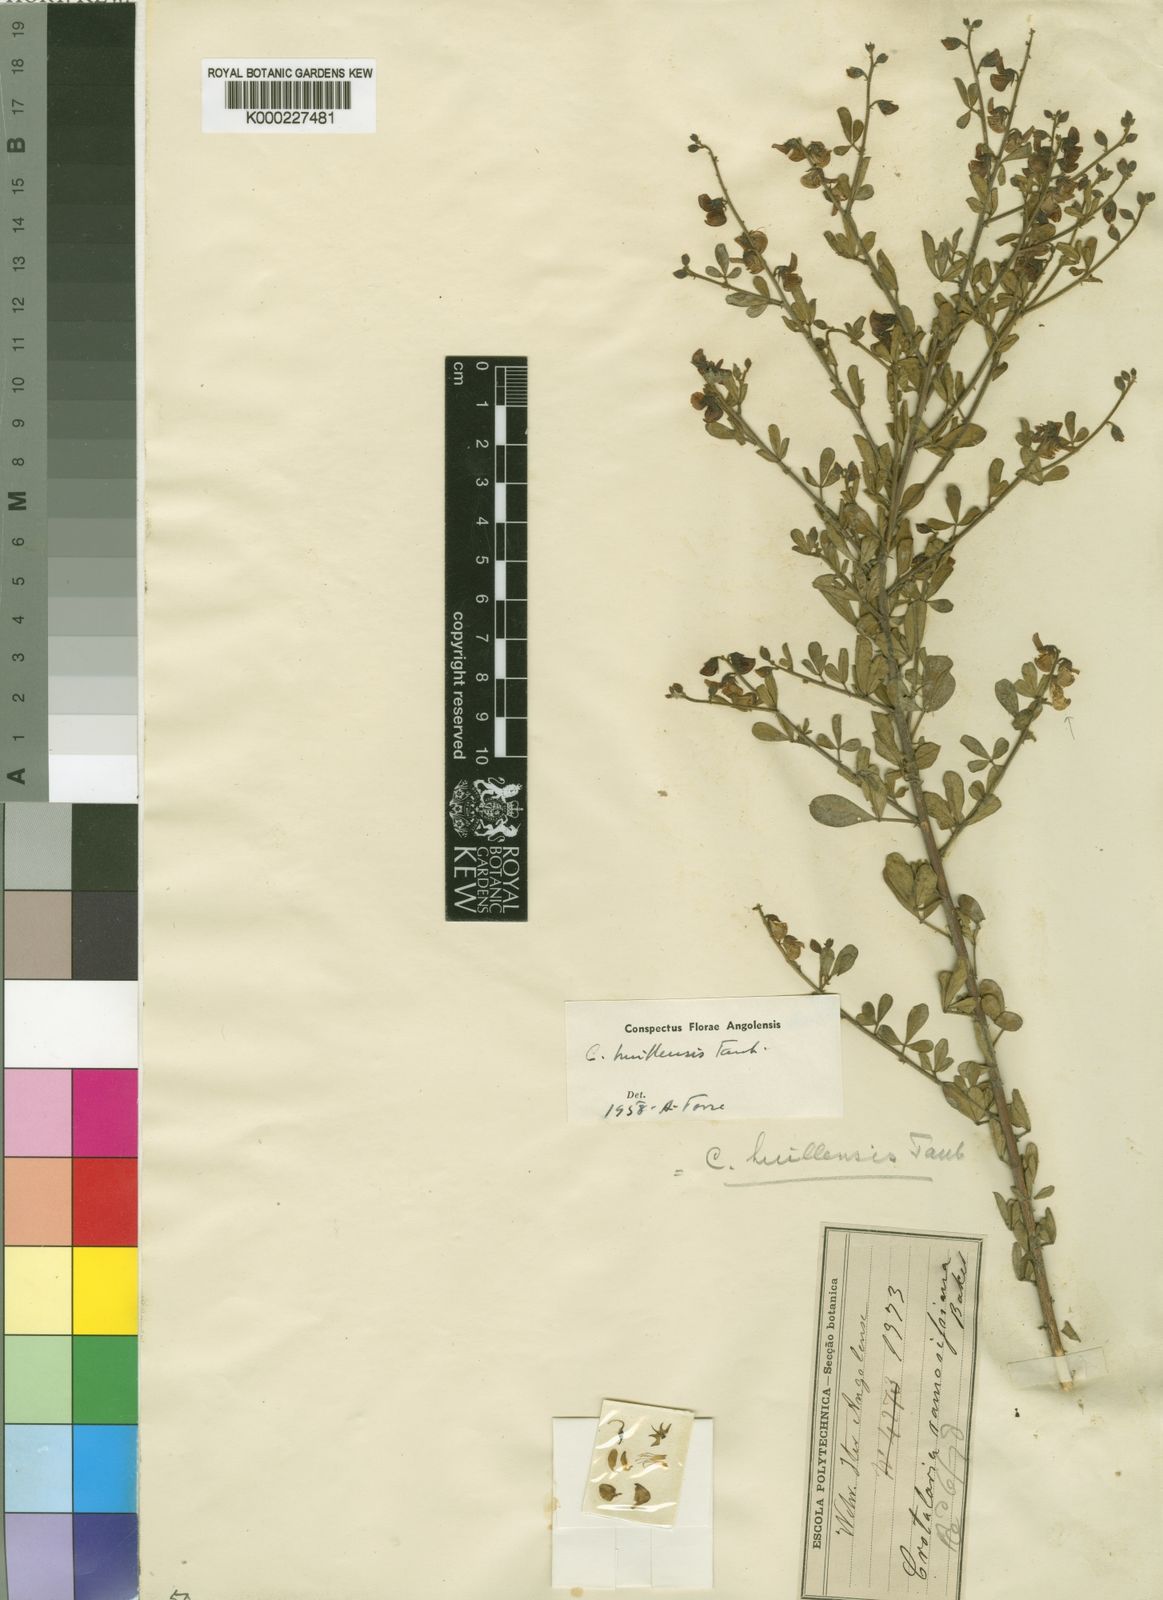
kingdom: Plantae
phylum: Tracheophyta
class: Magnoliopsida
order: Fabales
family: Fabaceae
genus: Crotalaria
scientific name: Crotalaria huillensis
